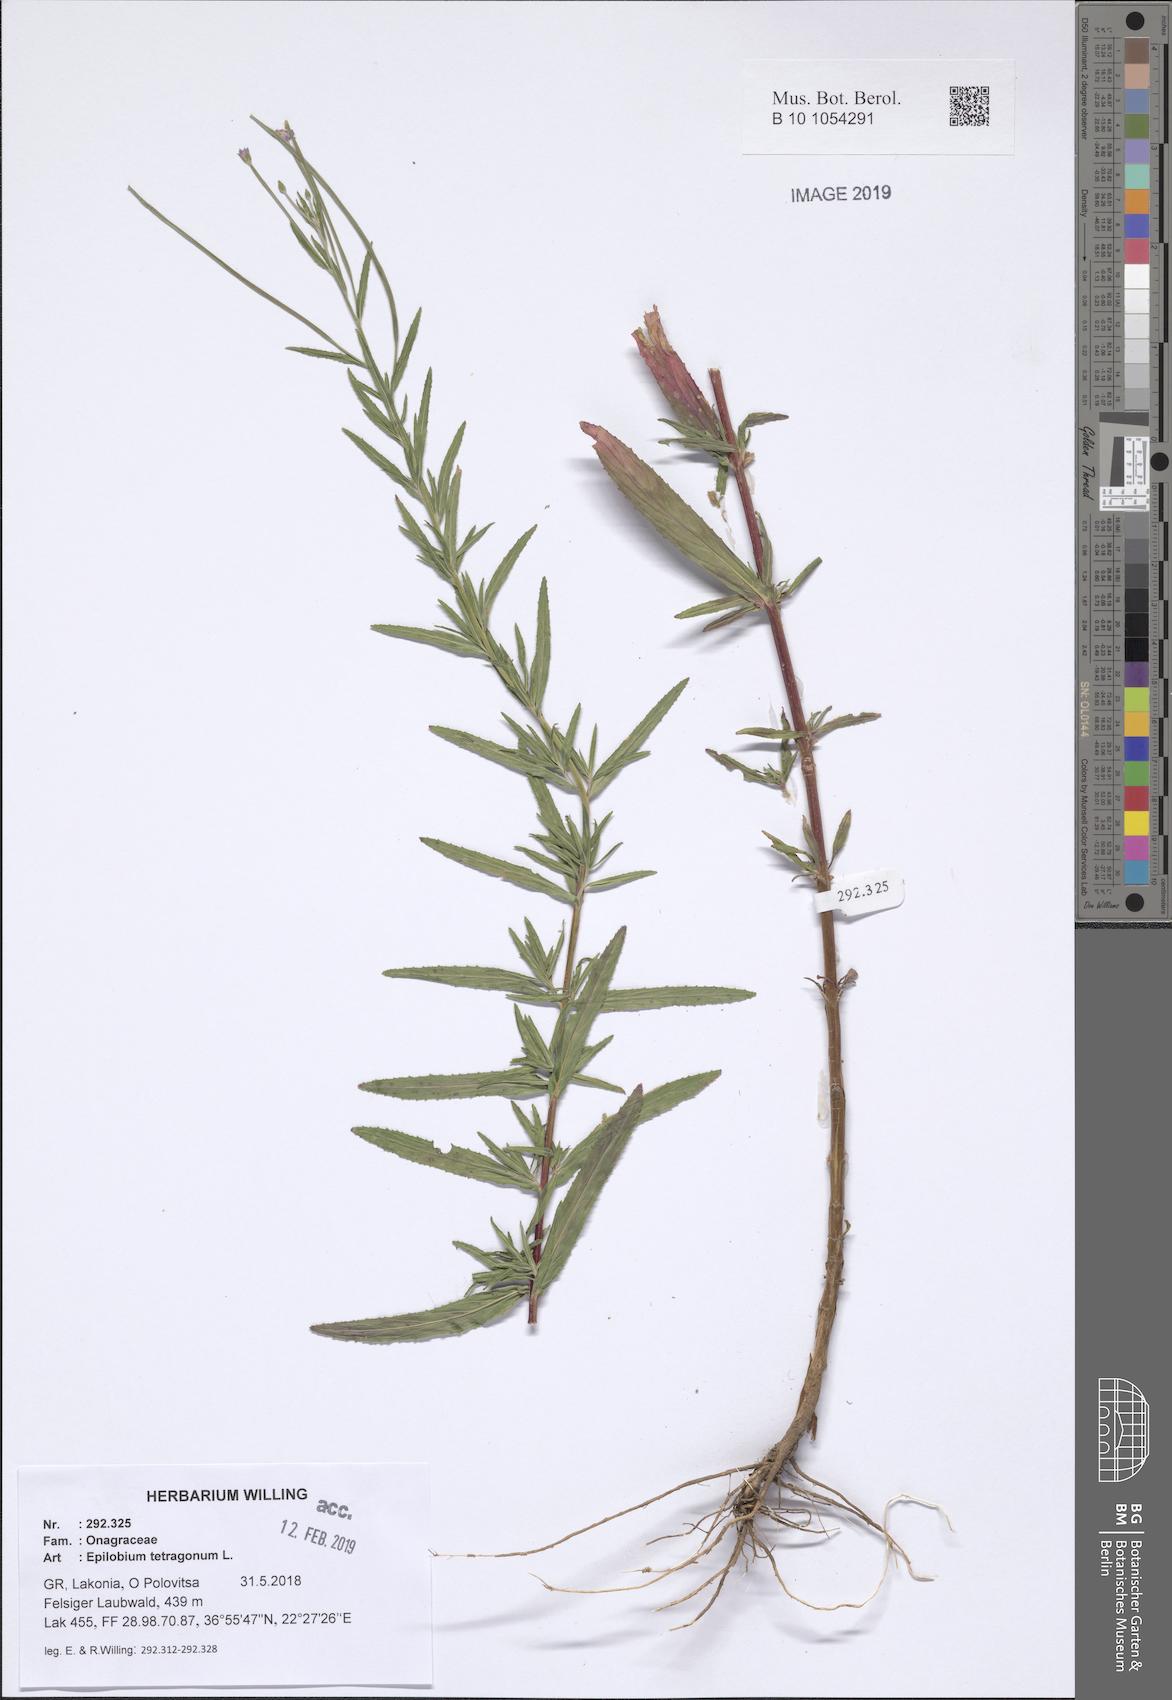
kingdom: Plantae
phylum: Tracheophyta
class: Magnoliopsida
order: Myrtales
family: Onagraceae
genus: Epilobium
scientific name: Epilobium tetragonum
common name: Square-stemmed willowherb
